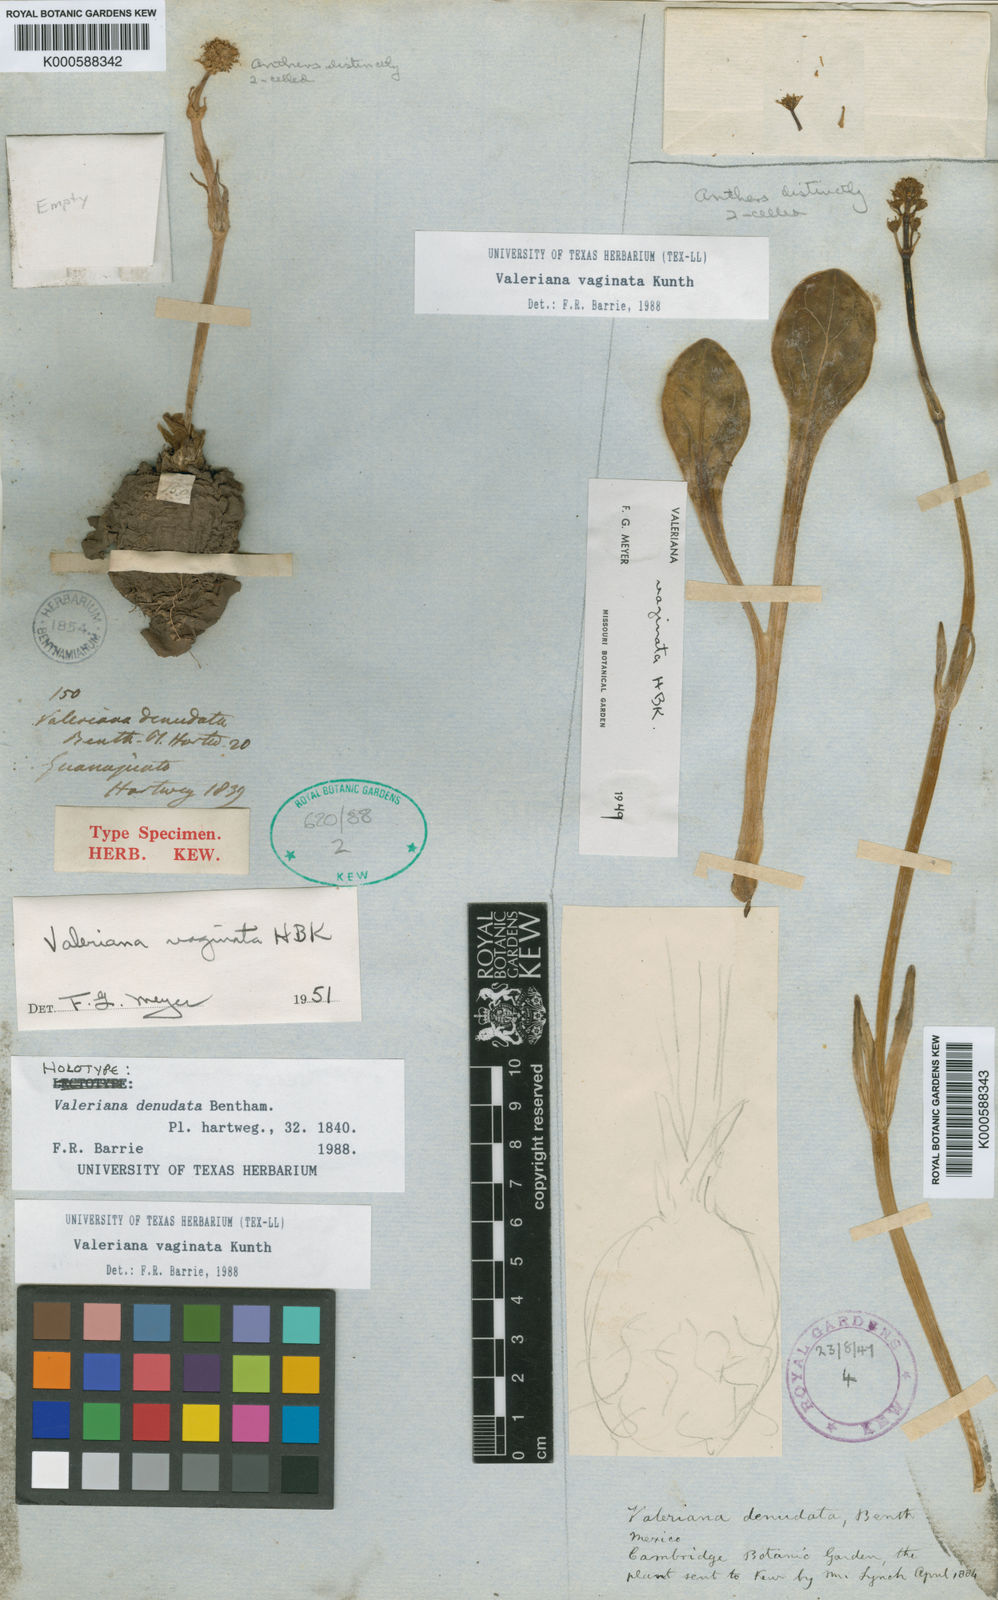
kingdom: Plantae
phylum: Tracheophyta
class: Magnoliopsida
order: Dipsacales
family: Caprifoliaceae
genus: Valeriana
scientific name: Valeriana vaginata
